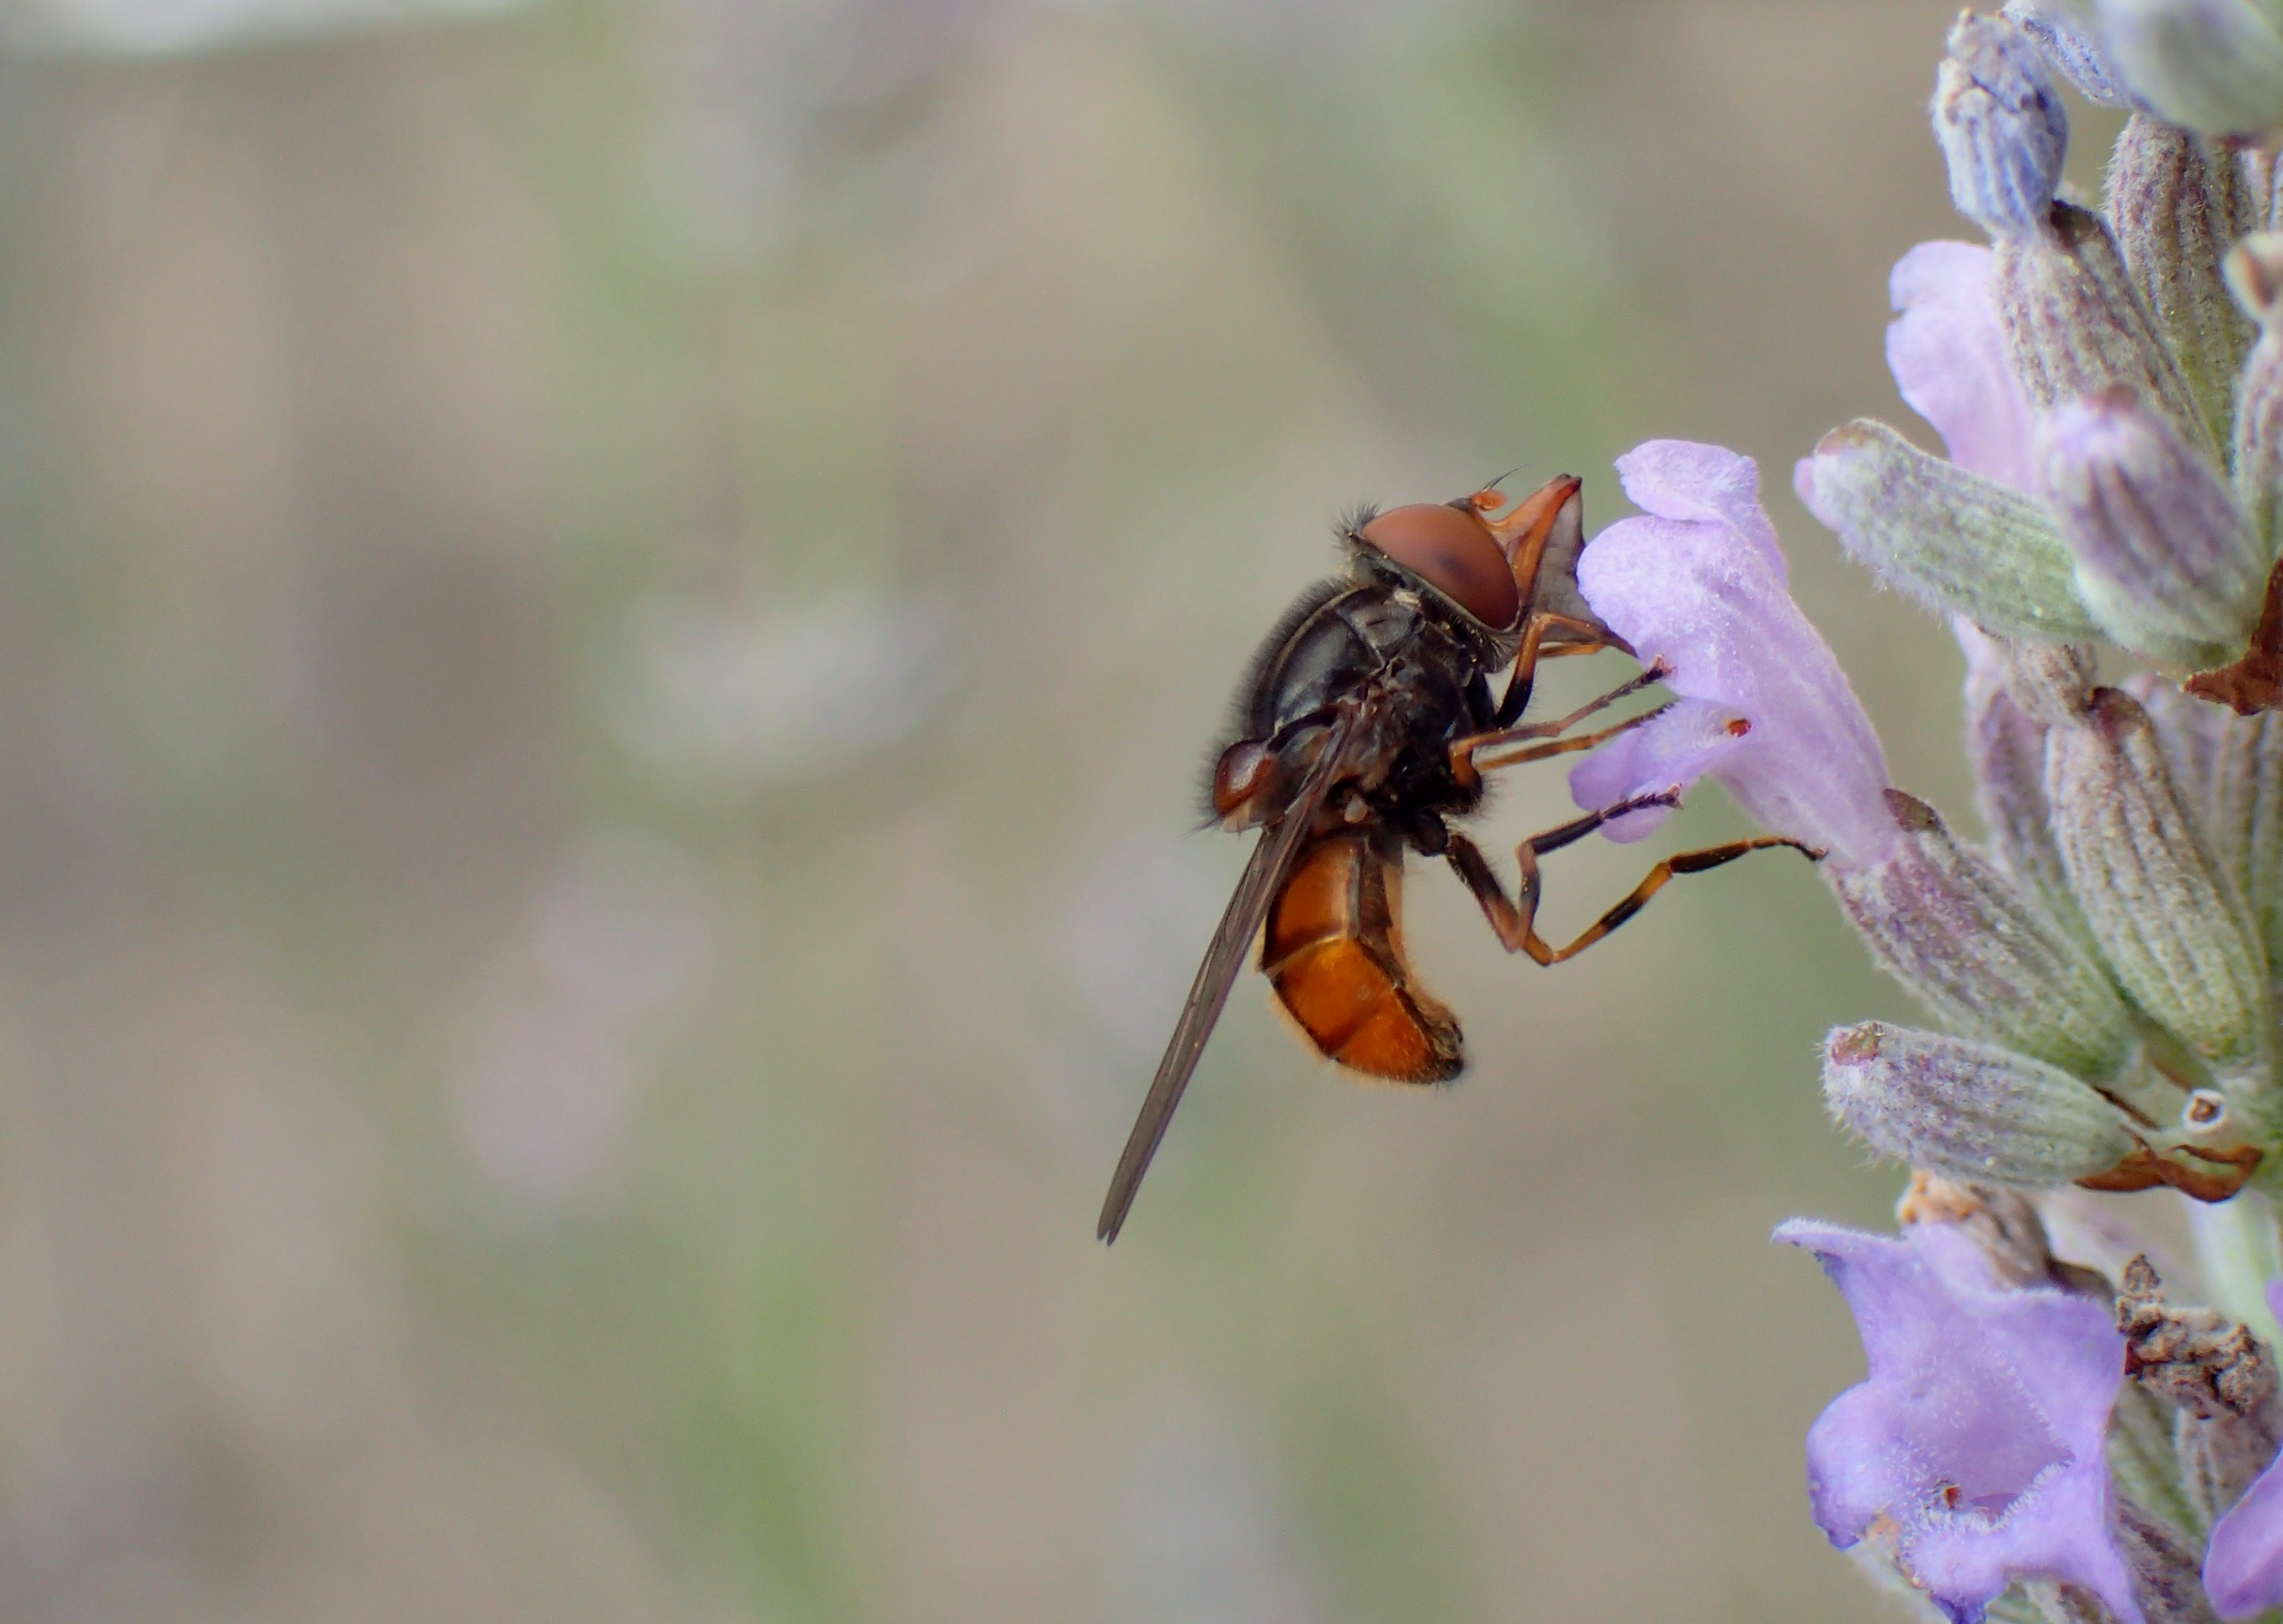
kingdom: Animalia
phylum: Arthropoda
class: Insecta
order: Diptera
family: Syrphidae
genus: Rhingia
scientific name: Rhingia campestris
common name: Mark-snabelsvirreflue
